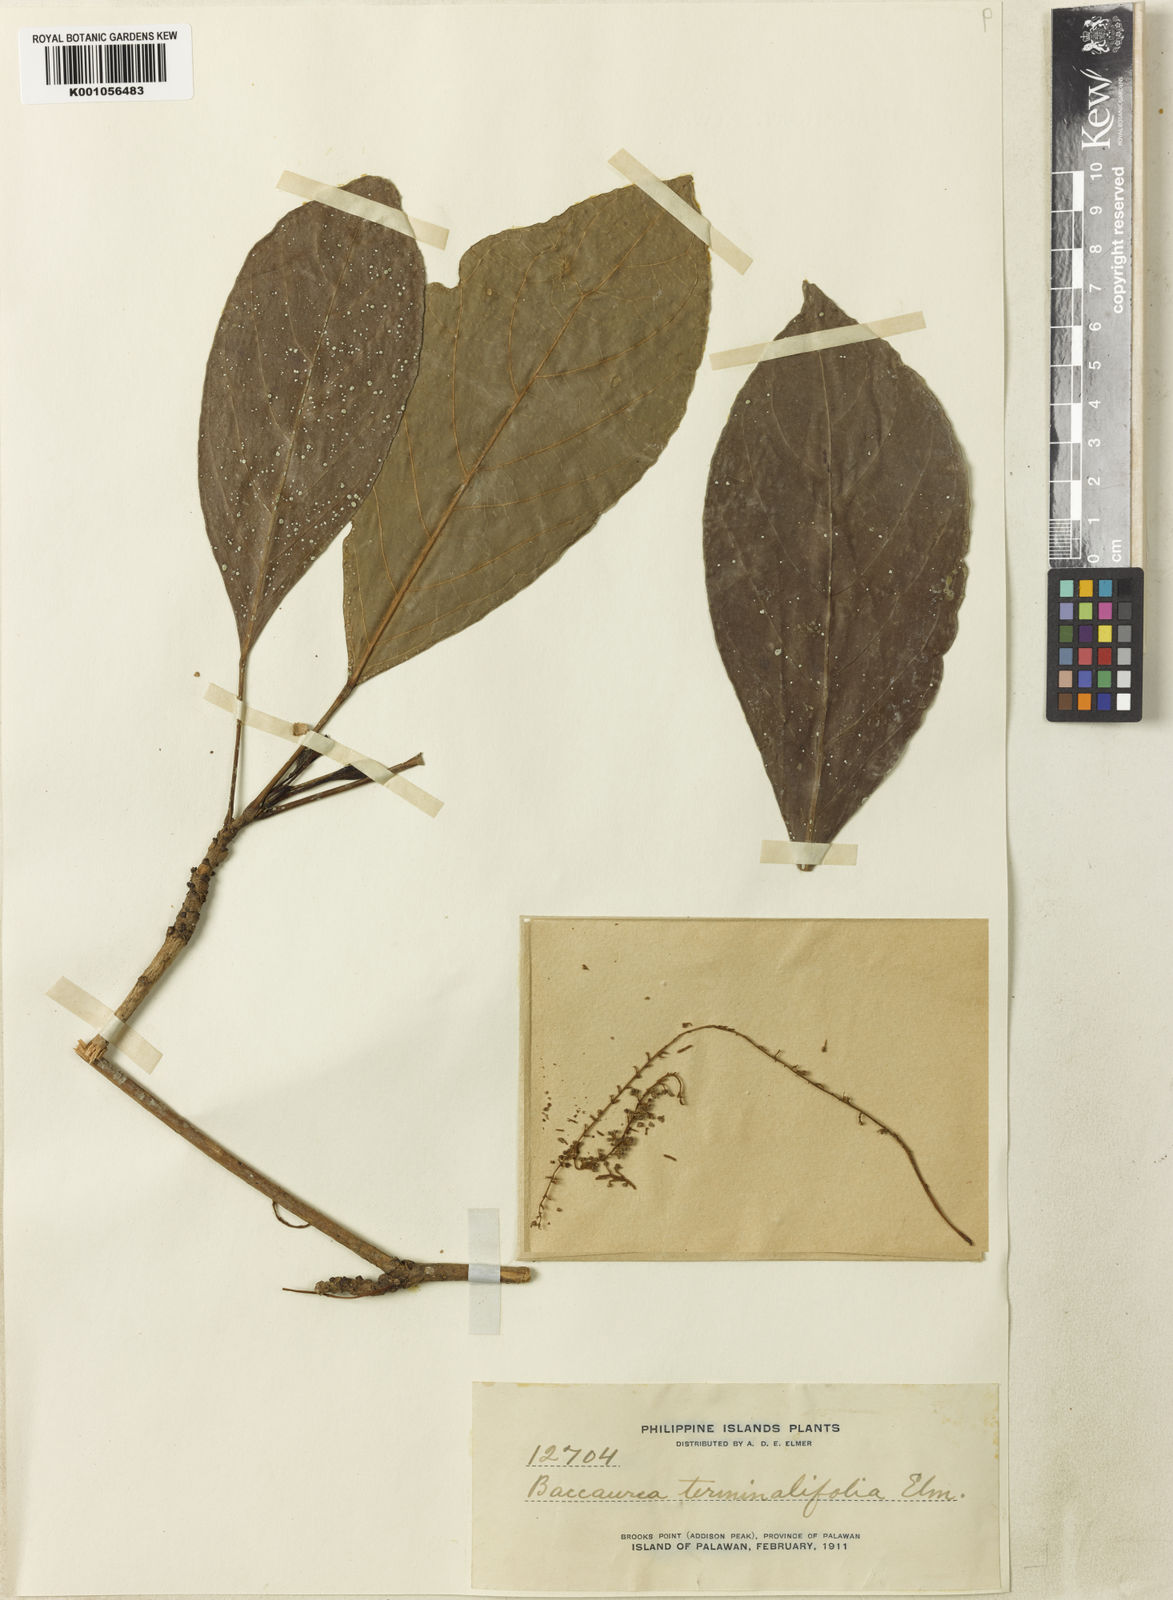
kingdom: Plantae
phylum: Tracheophyta
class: Magnoliopsida
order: Malpighiales
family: Phyllanthaceae
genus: Baccaurea
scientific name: Baccaurea
